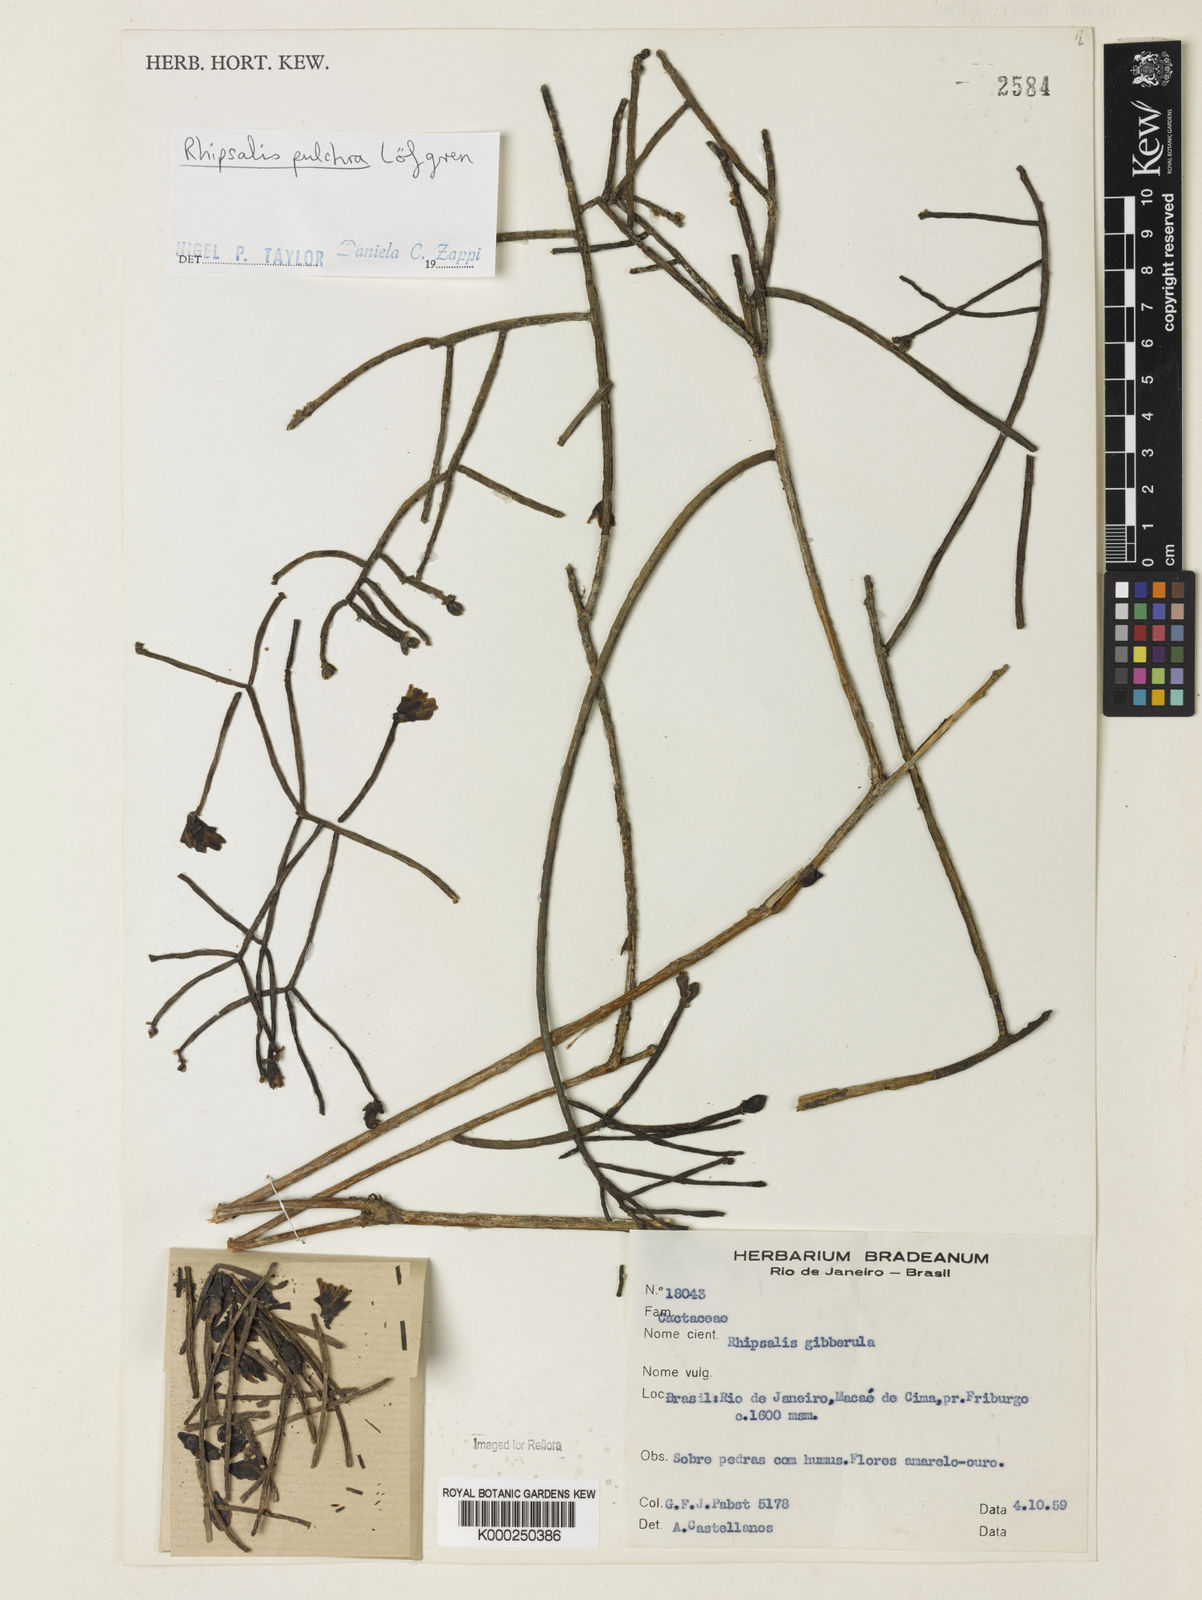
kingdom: Plantae
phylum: Tracheophyta
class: Magnoliopsida
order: Caryophyllales
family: Cactaceae
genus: Rhipsalis
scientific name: Rhipsalis
